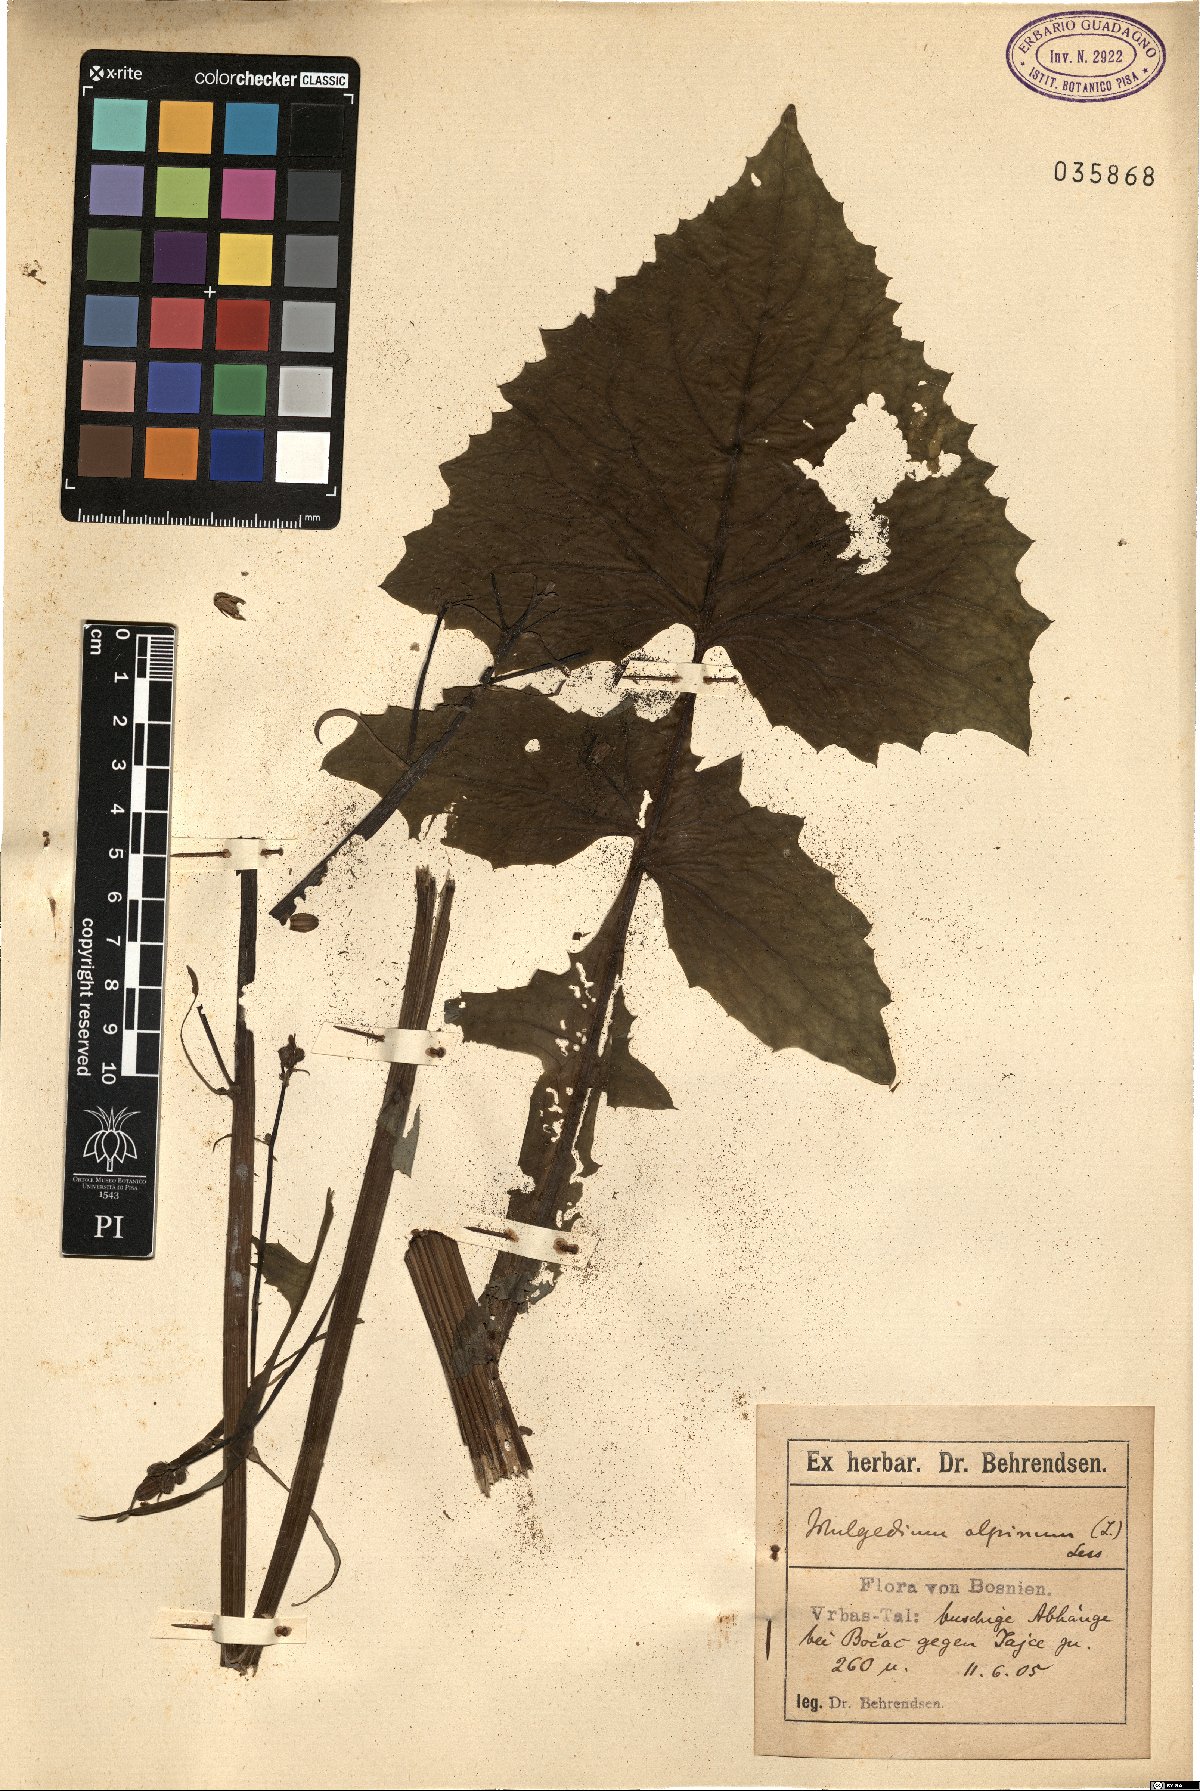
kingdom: Plantae
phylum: Tracheophyta
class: Magnoliopsida
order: Asterales
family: Asteraceae
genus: Cicerbita
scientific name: Cicerbita alpina
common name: Alpine blue-sow-thistle
